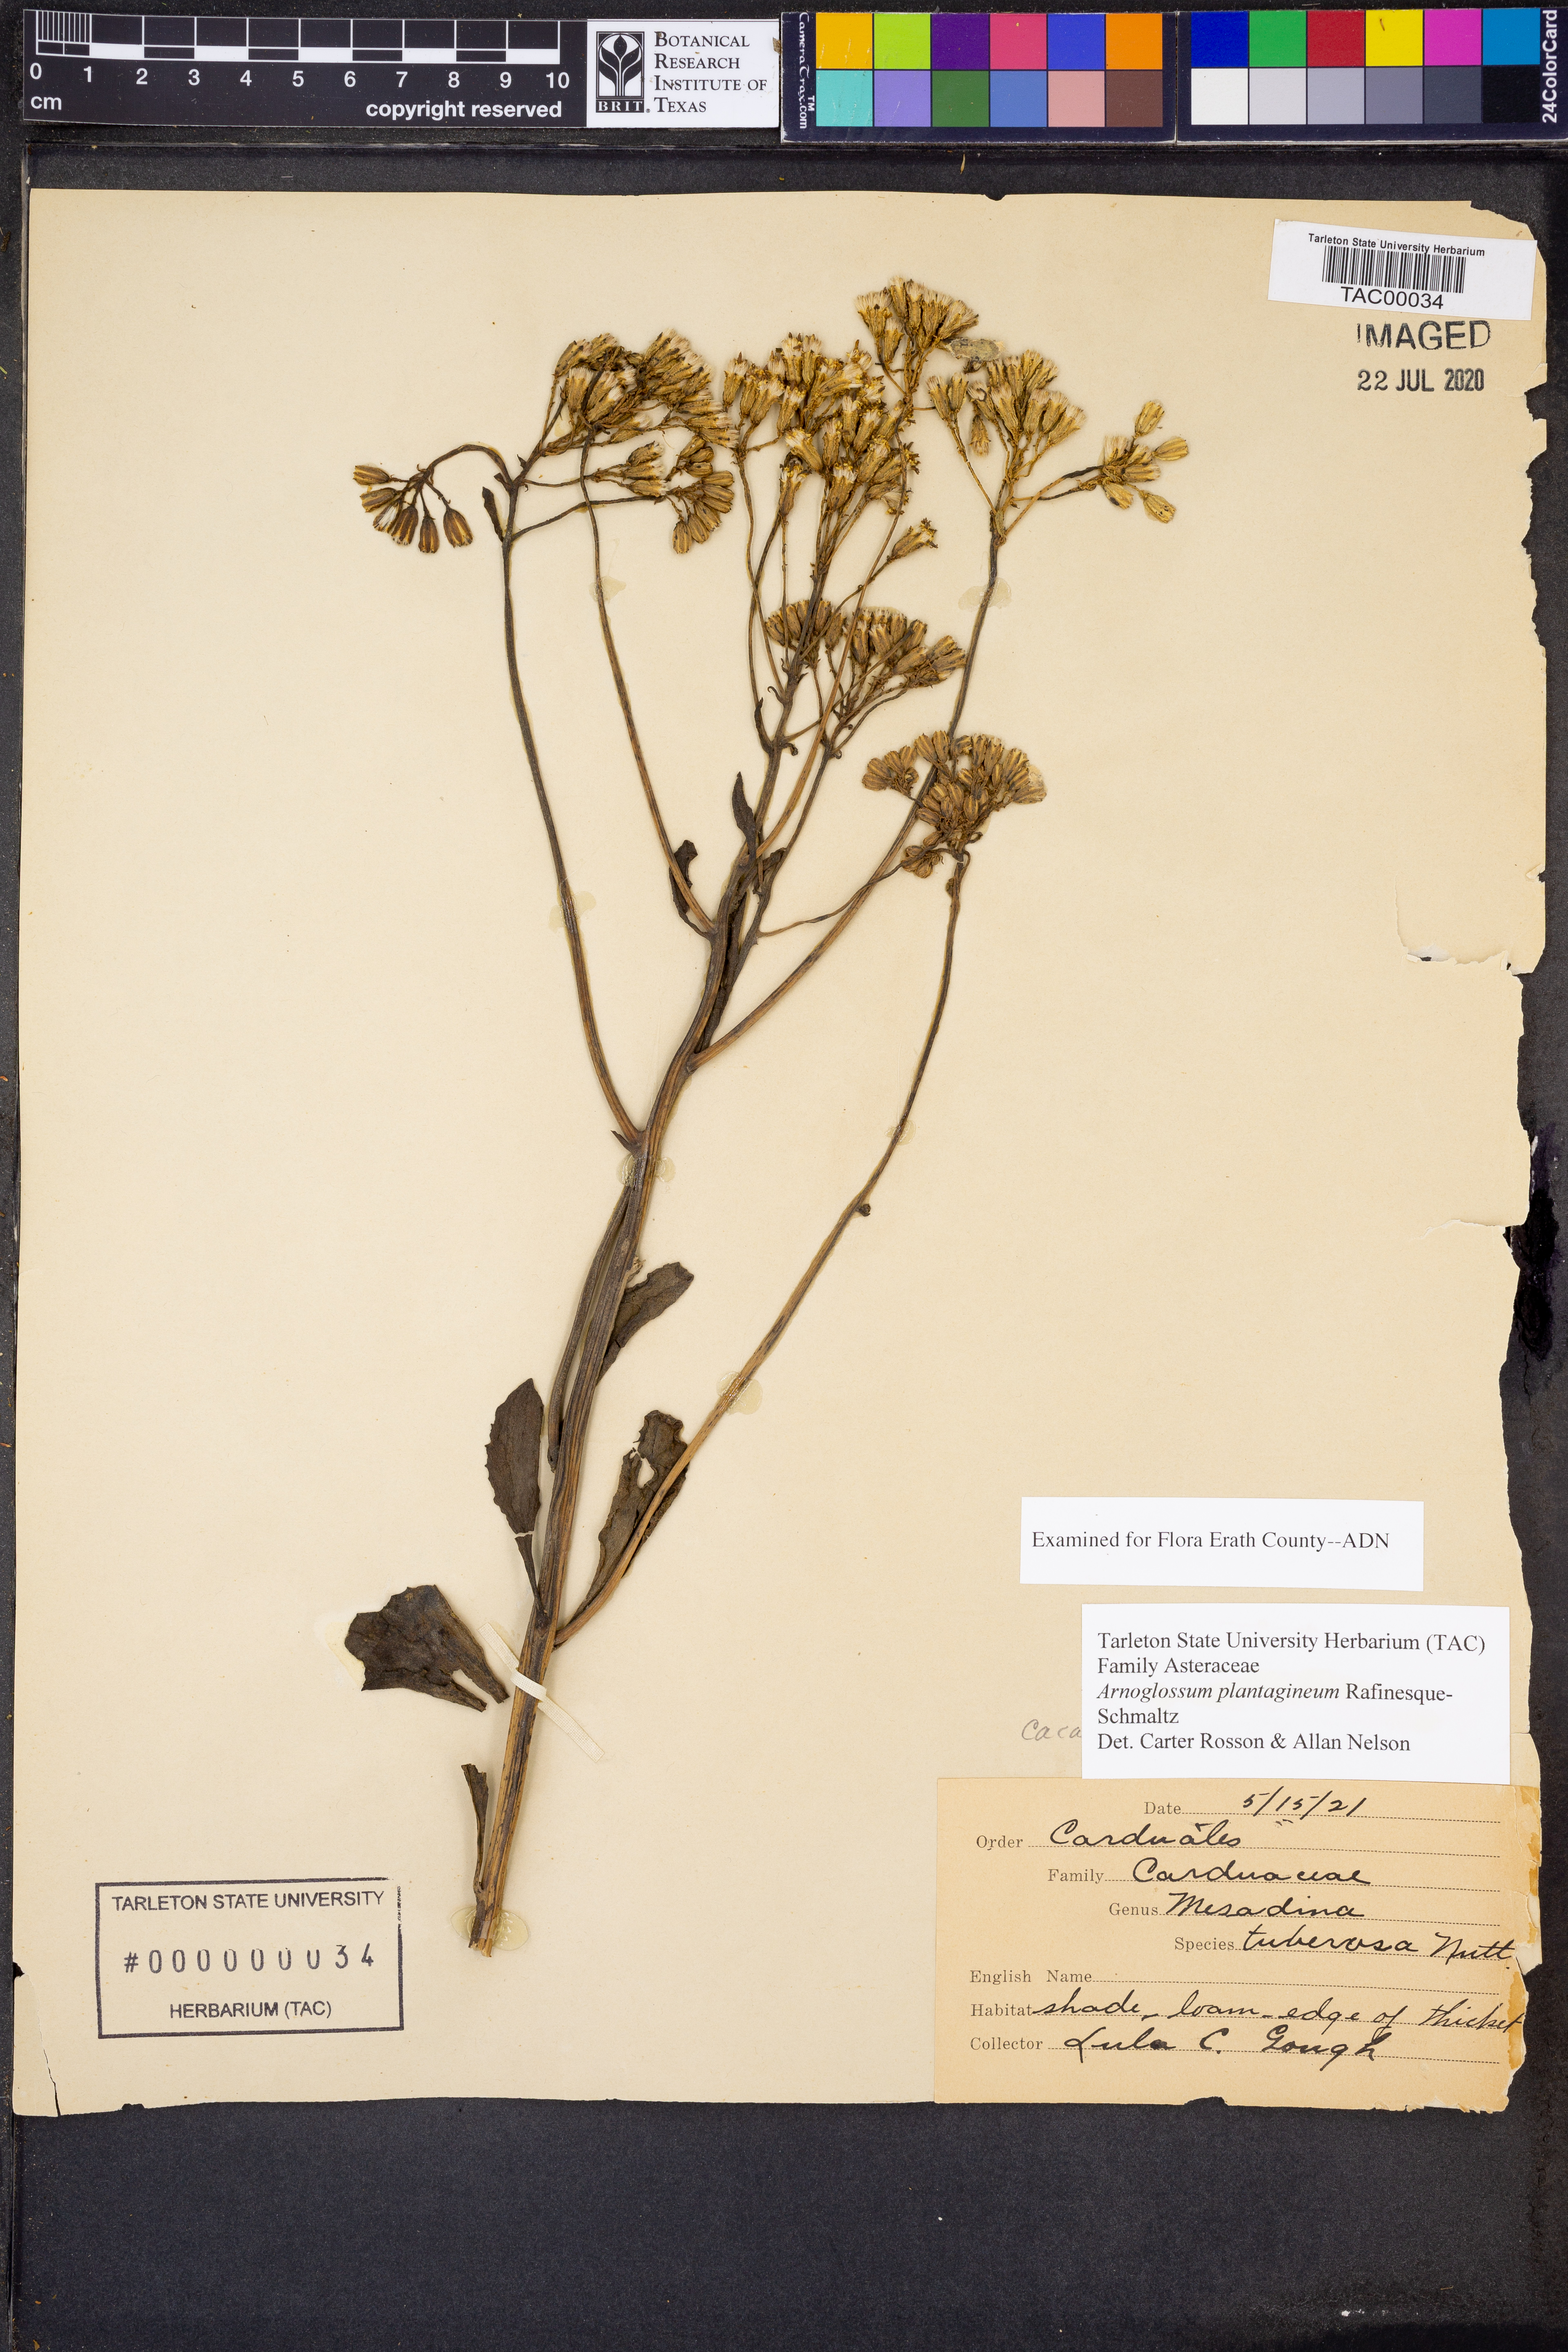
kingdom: Plantae
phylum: Tracheophyta
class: Magnoliopsida
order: Asterales
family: Asteraceae
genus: Arnoglossum
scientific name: Arnoglossum plantagineum
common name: Groove-stemmed indian-plantain
